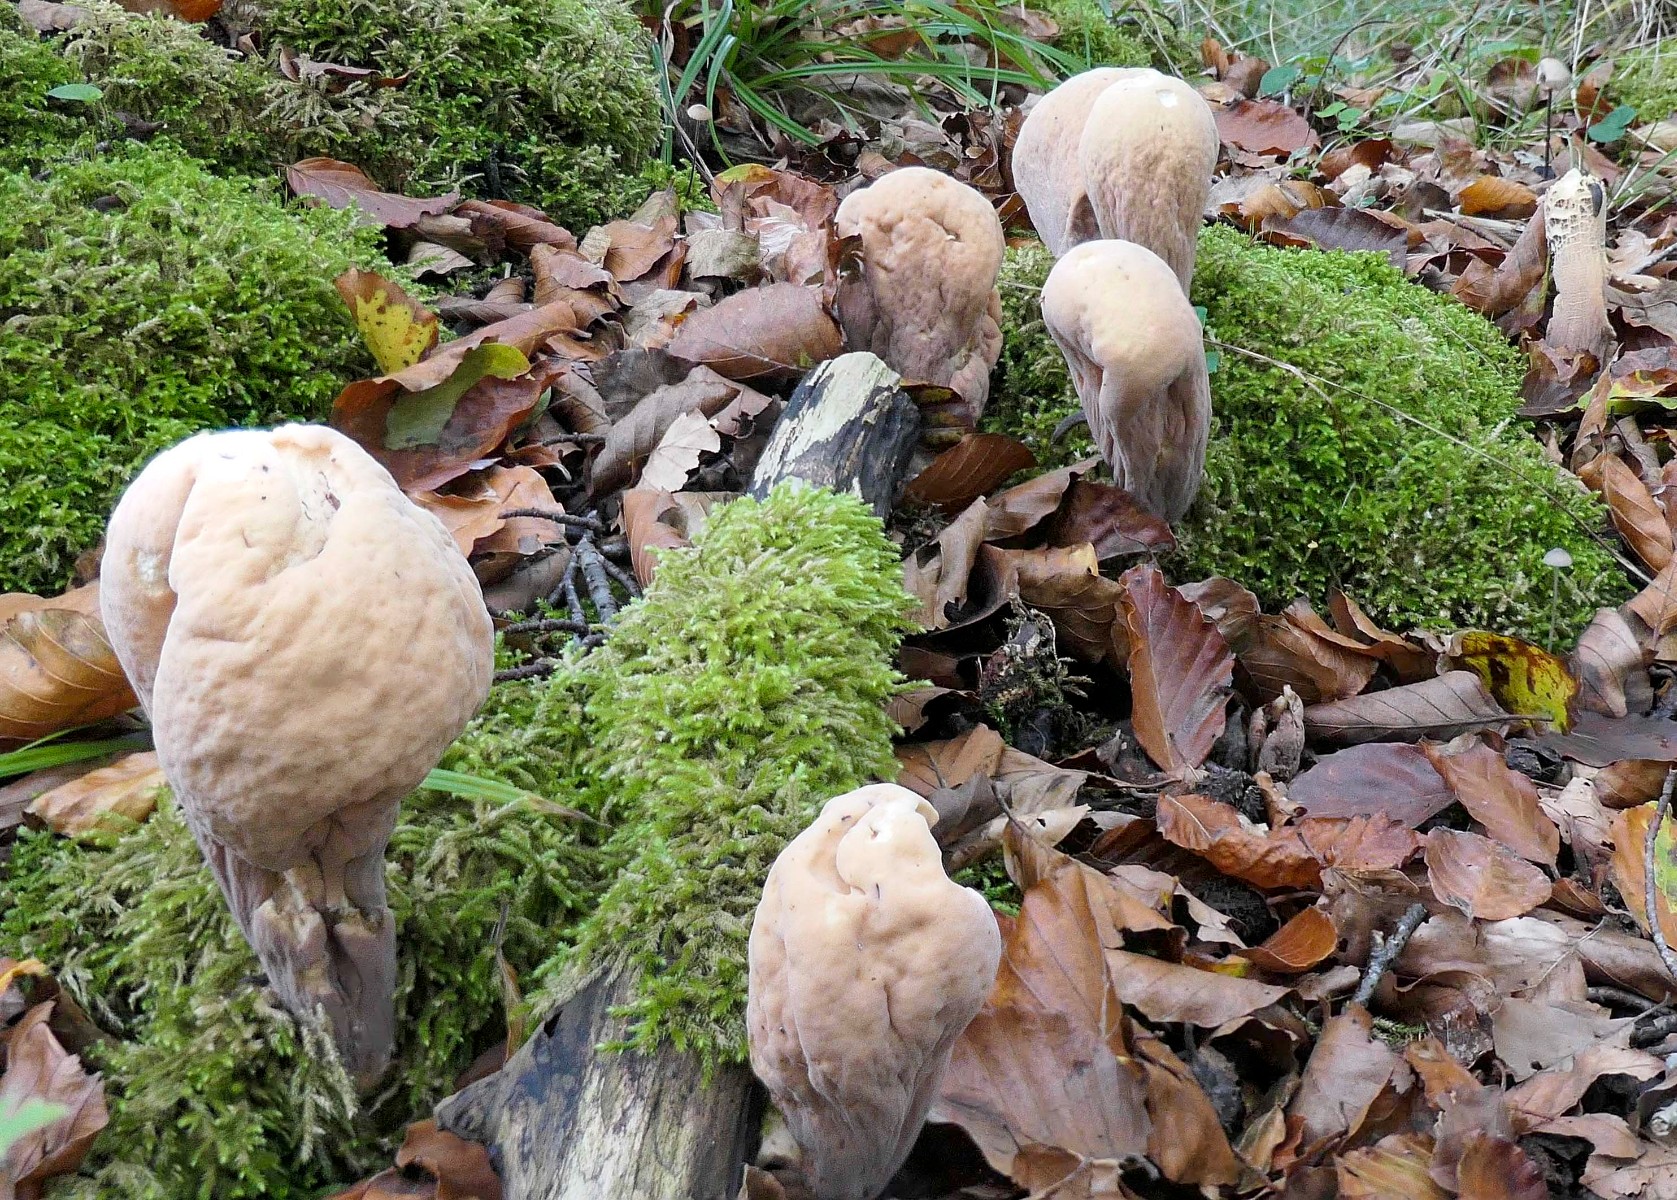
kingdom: Fungi
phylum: Basidiomycota
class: Agaricomycetes
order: Gomphales
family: Clavariadelphaceae
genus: Clavariadelphus
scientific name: Clavariadelphus pistillaris
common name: herkules-kæmpekølle
